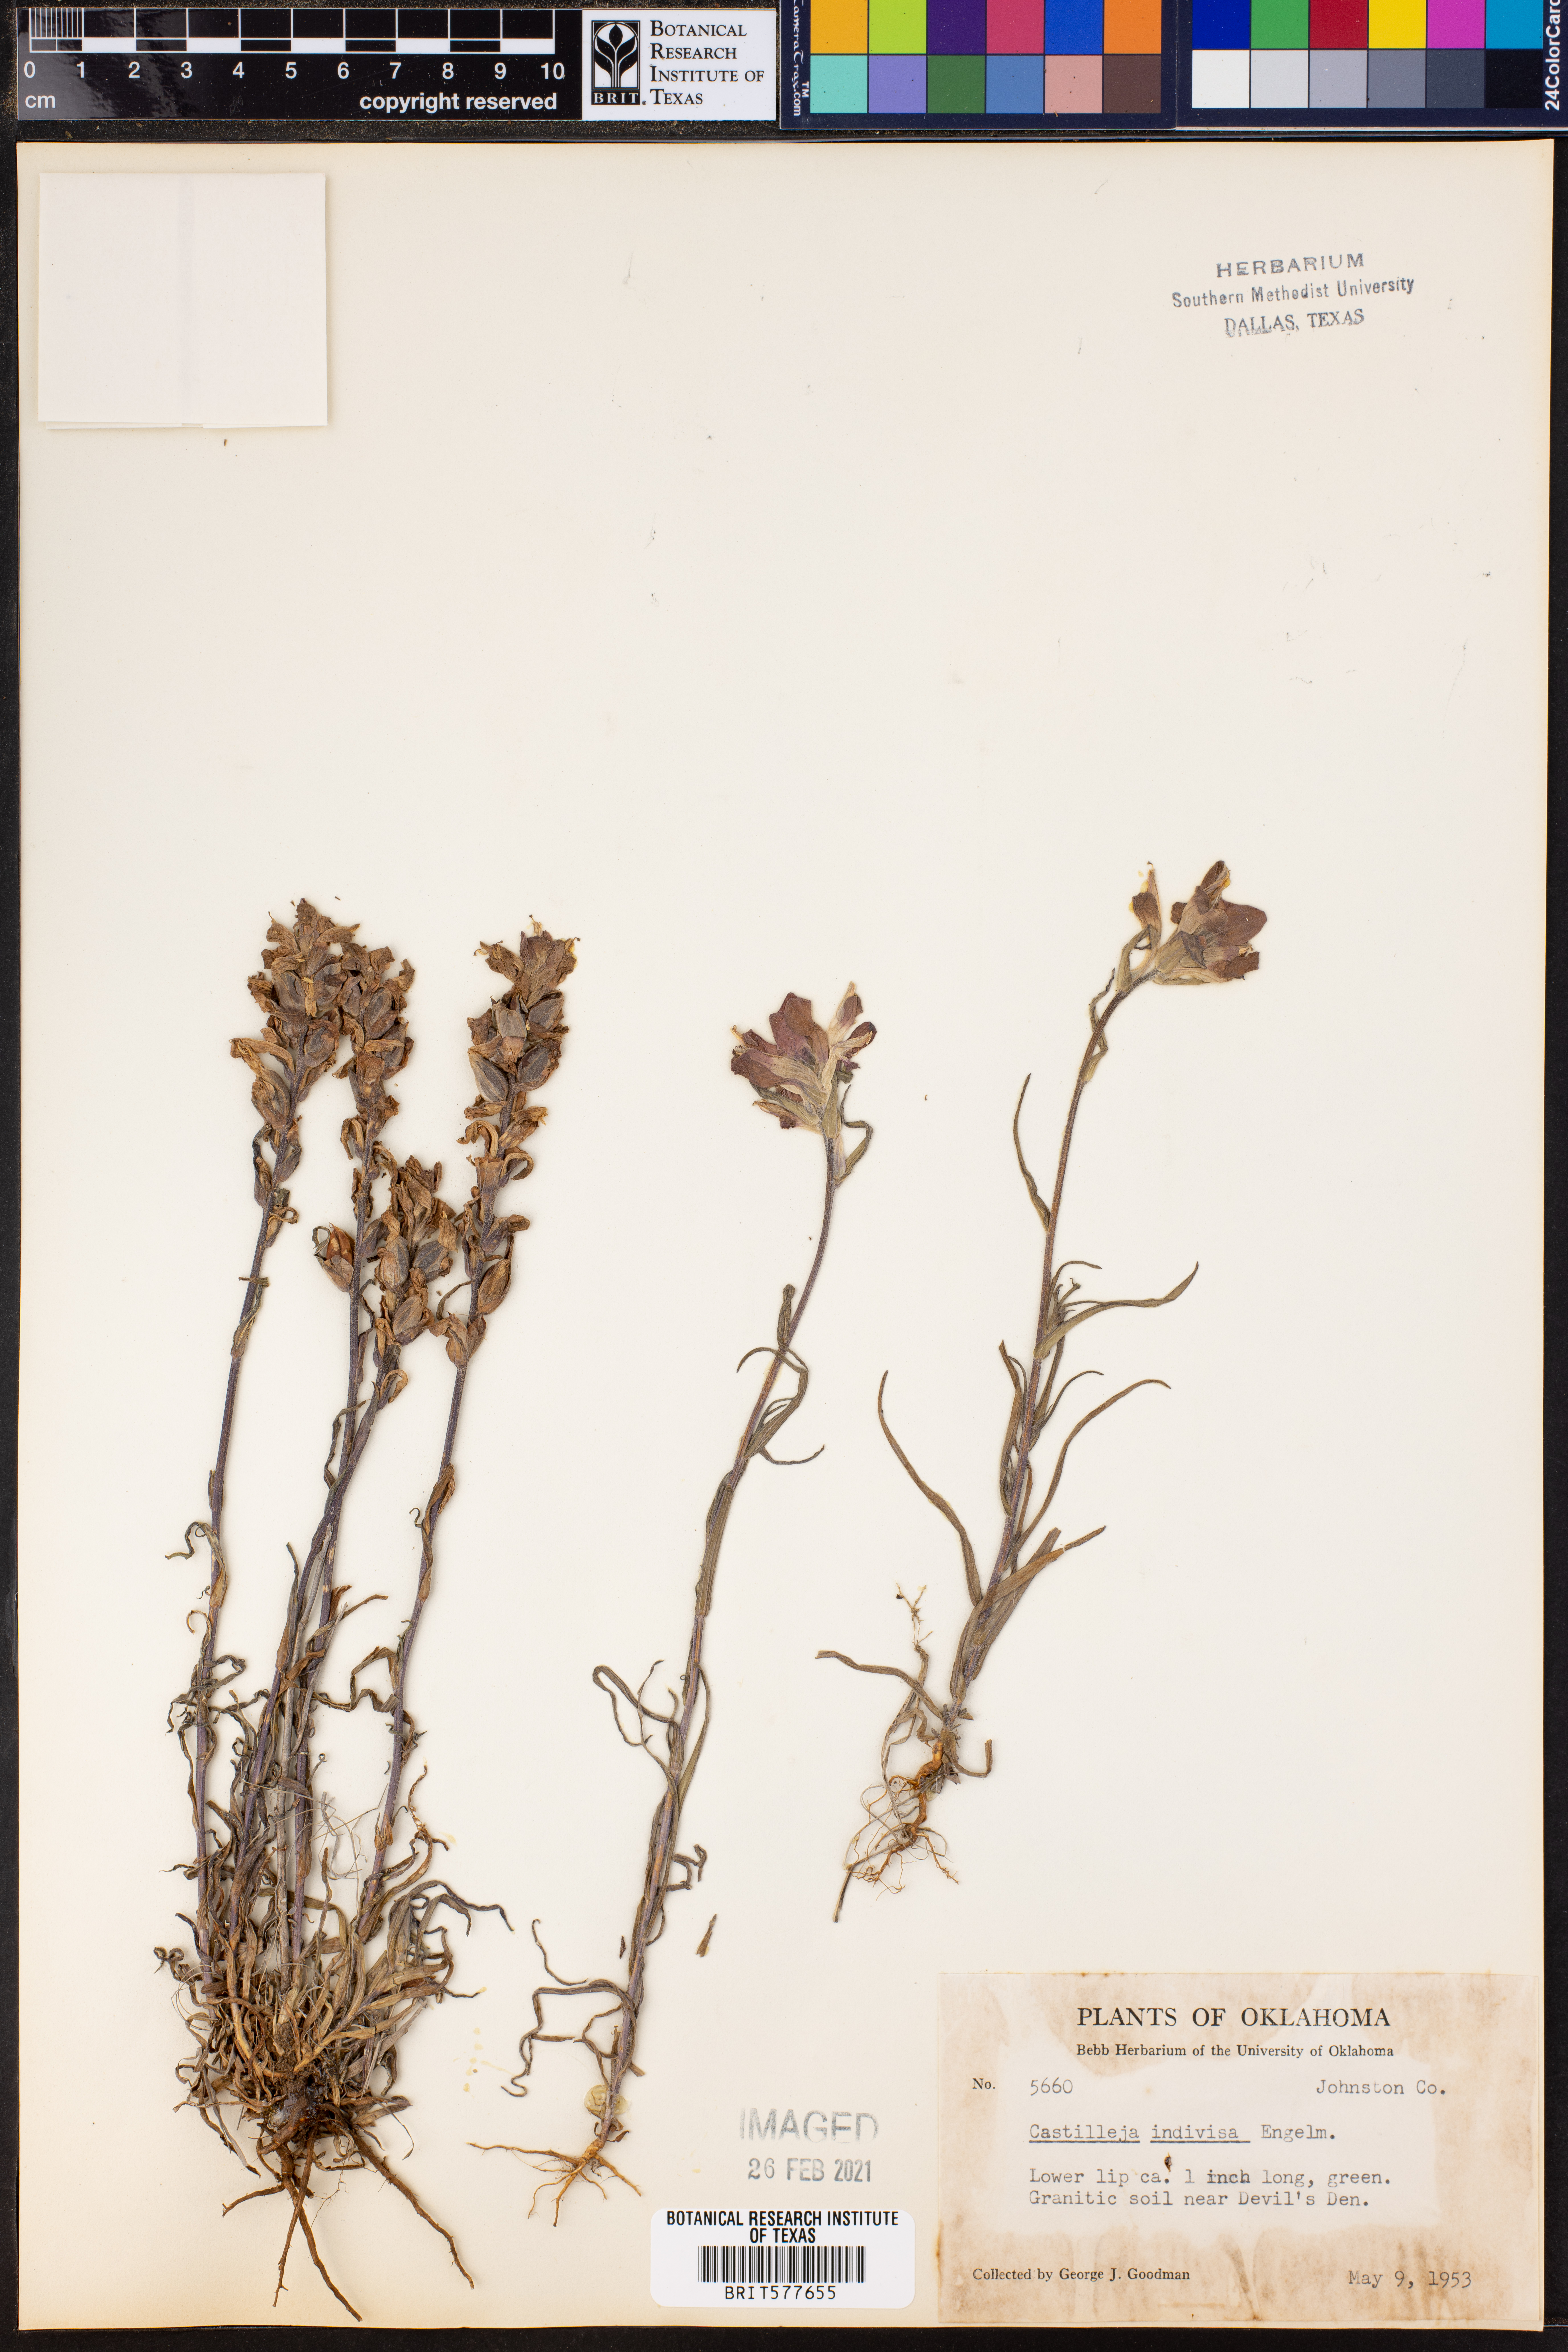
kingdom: Plantae
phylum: Tracheophyta
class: Magnoliopsida
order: Lamiales
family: Orobanchaceae
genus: Castilleja
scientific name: Castilleja indivisa
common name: Texas paintbrush
